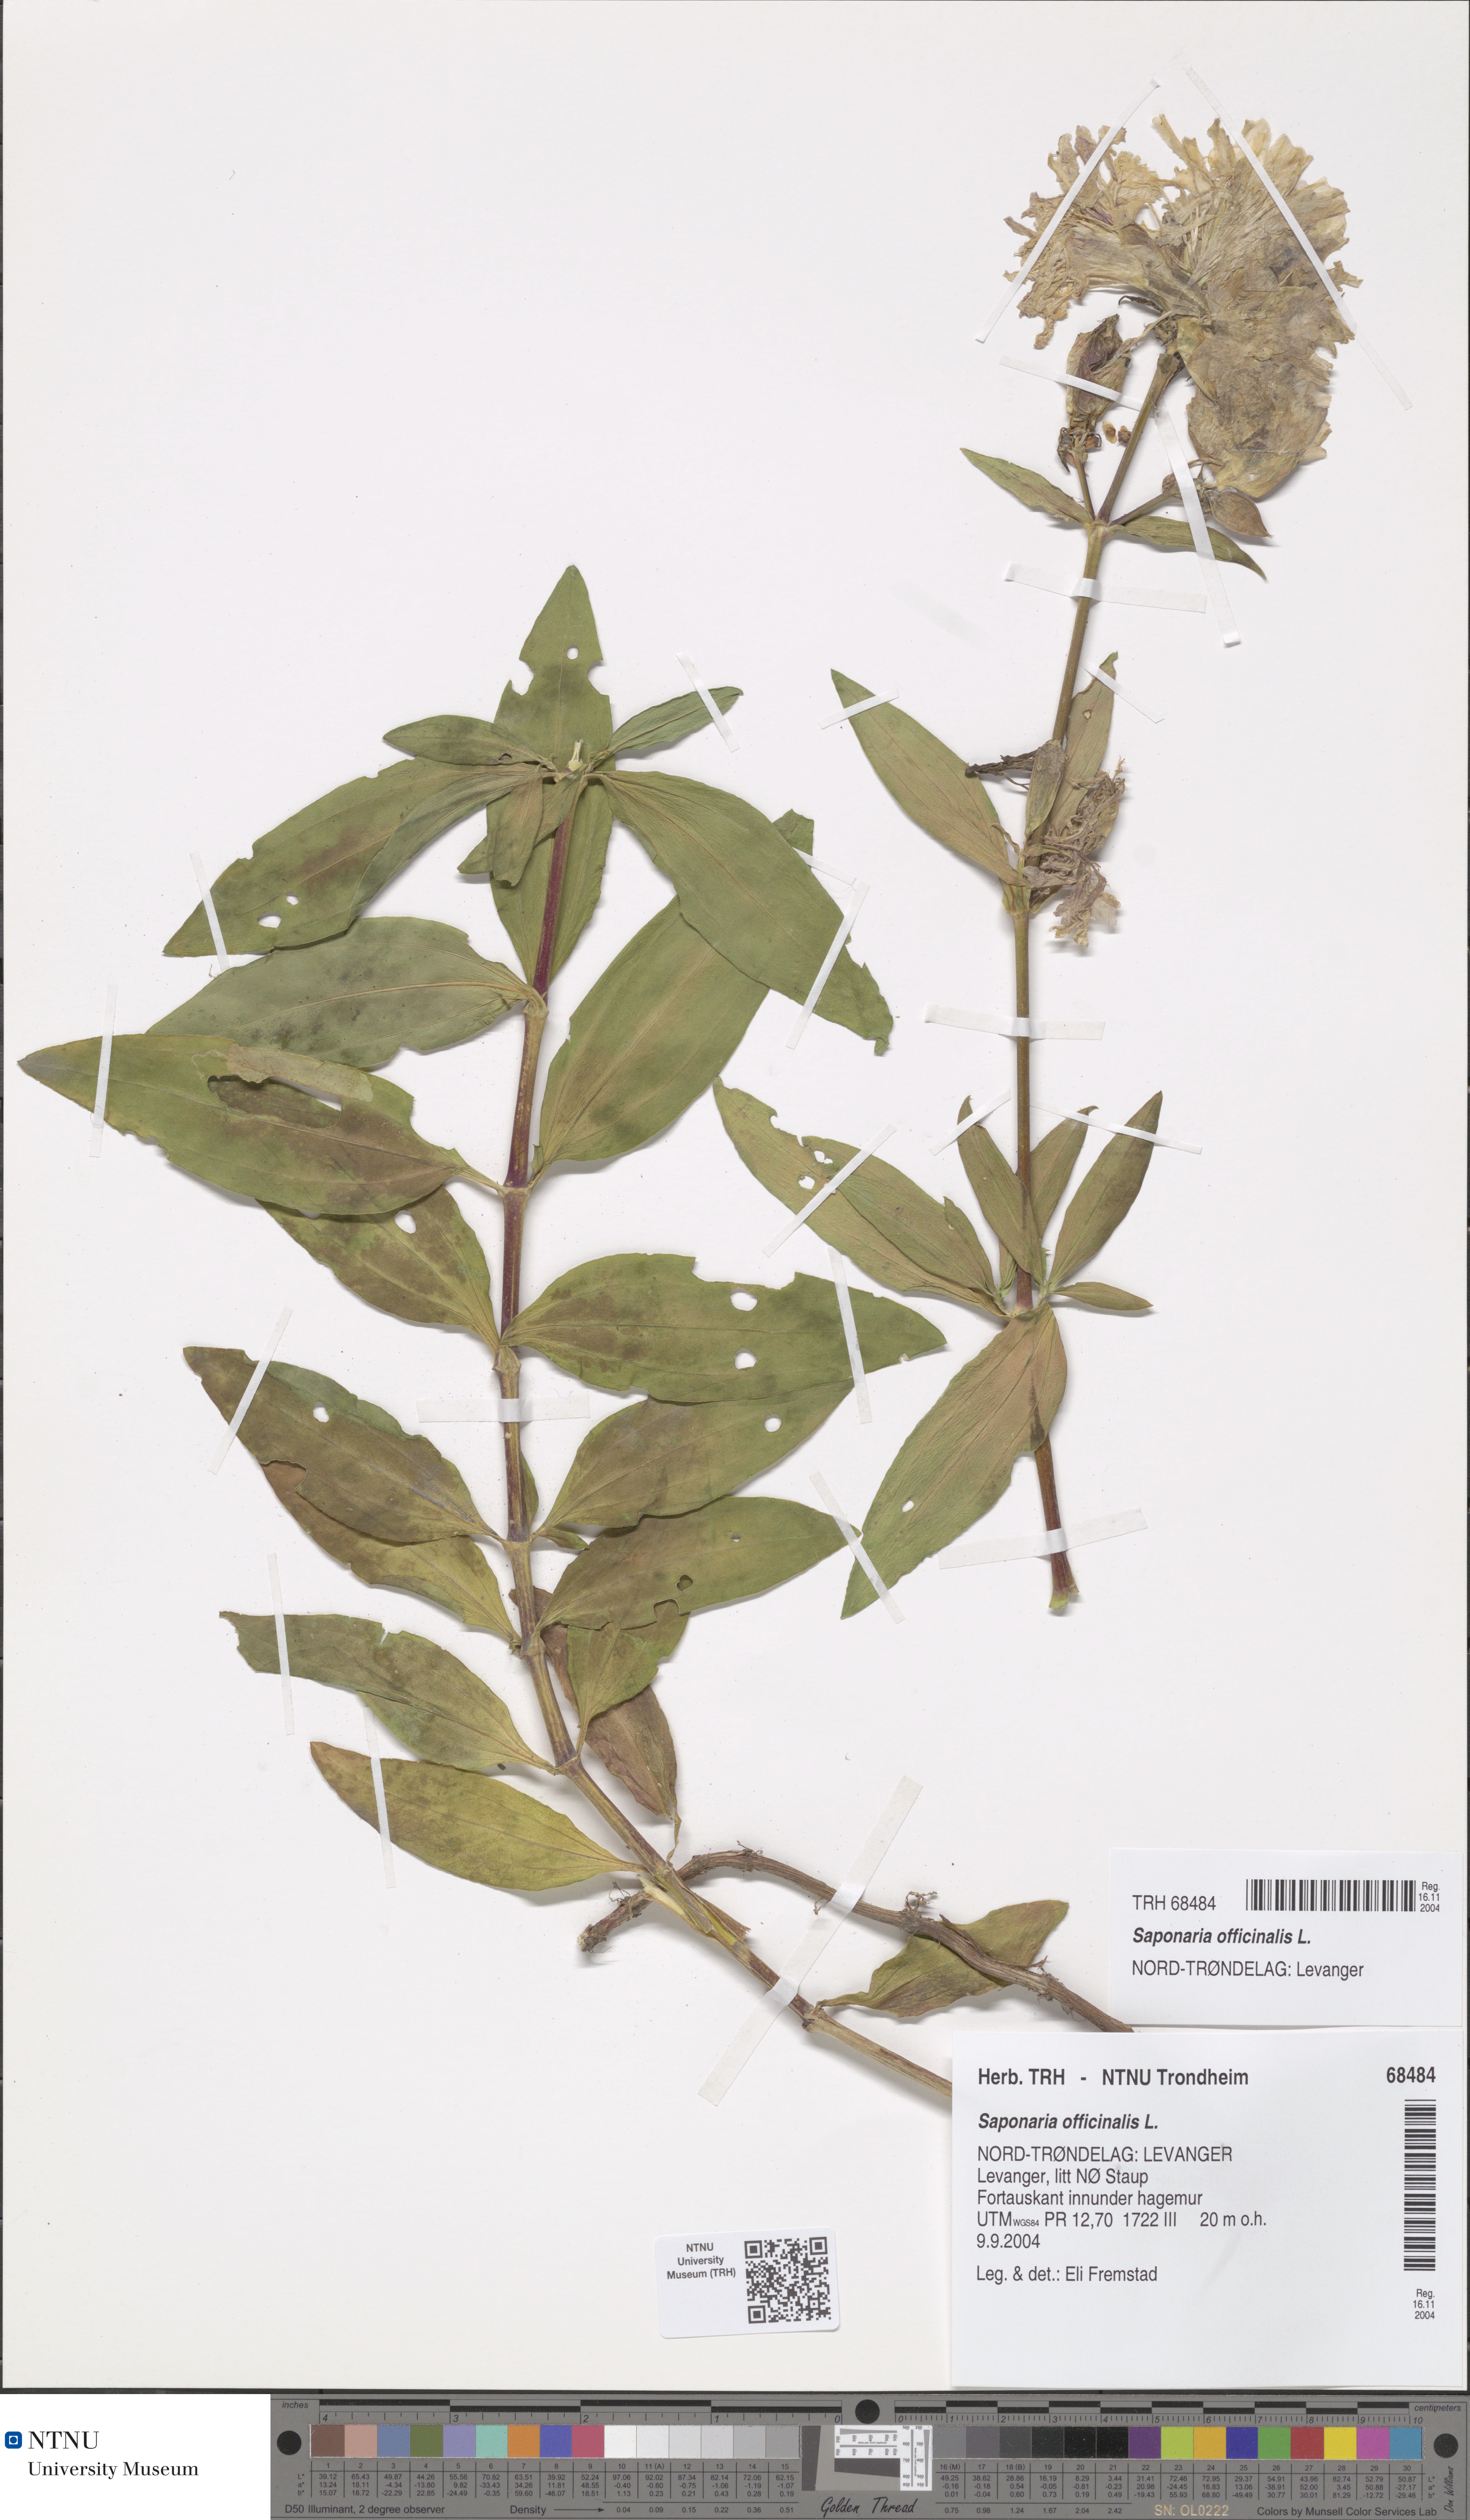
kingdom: Plantae
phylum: Tracheophyta
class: Magnoliopsida
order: Caryophyllales
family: Caryophyllaceae
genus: Saponaria
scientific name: Saponaria officinalis
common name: Soapwort
